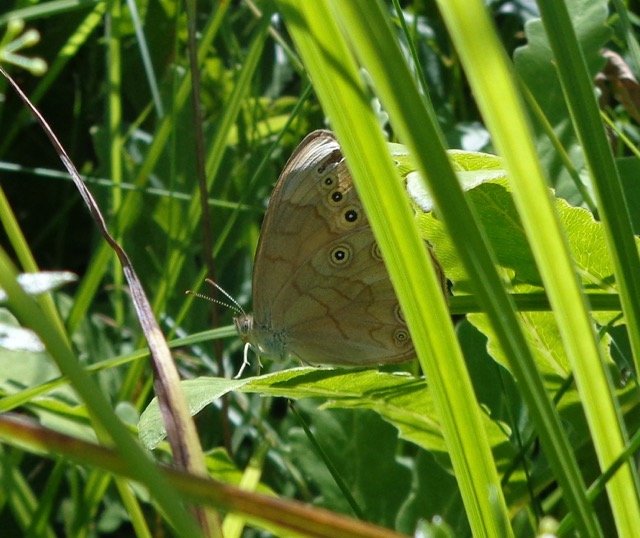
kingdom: Animalia
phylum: Arthropoda
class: Insecta
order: Lepidoptera
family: Nymphalidae
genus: Lethe
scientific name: Lethe eurydice
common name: Eyed Brown
